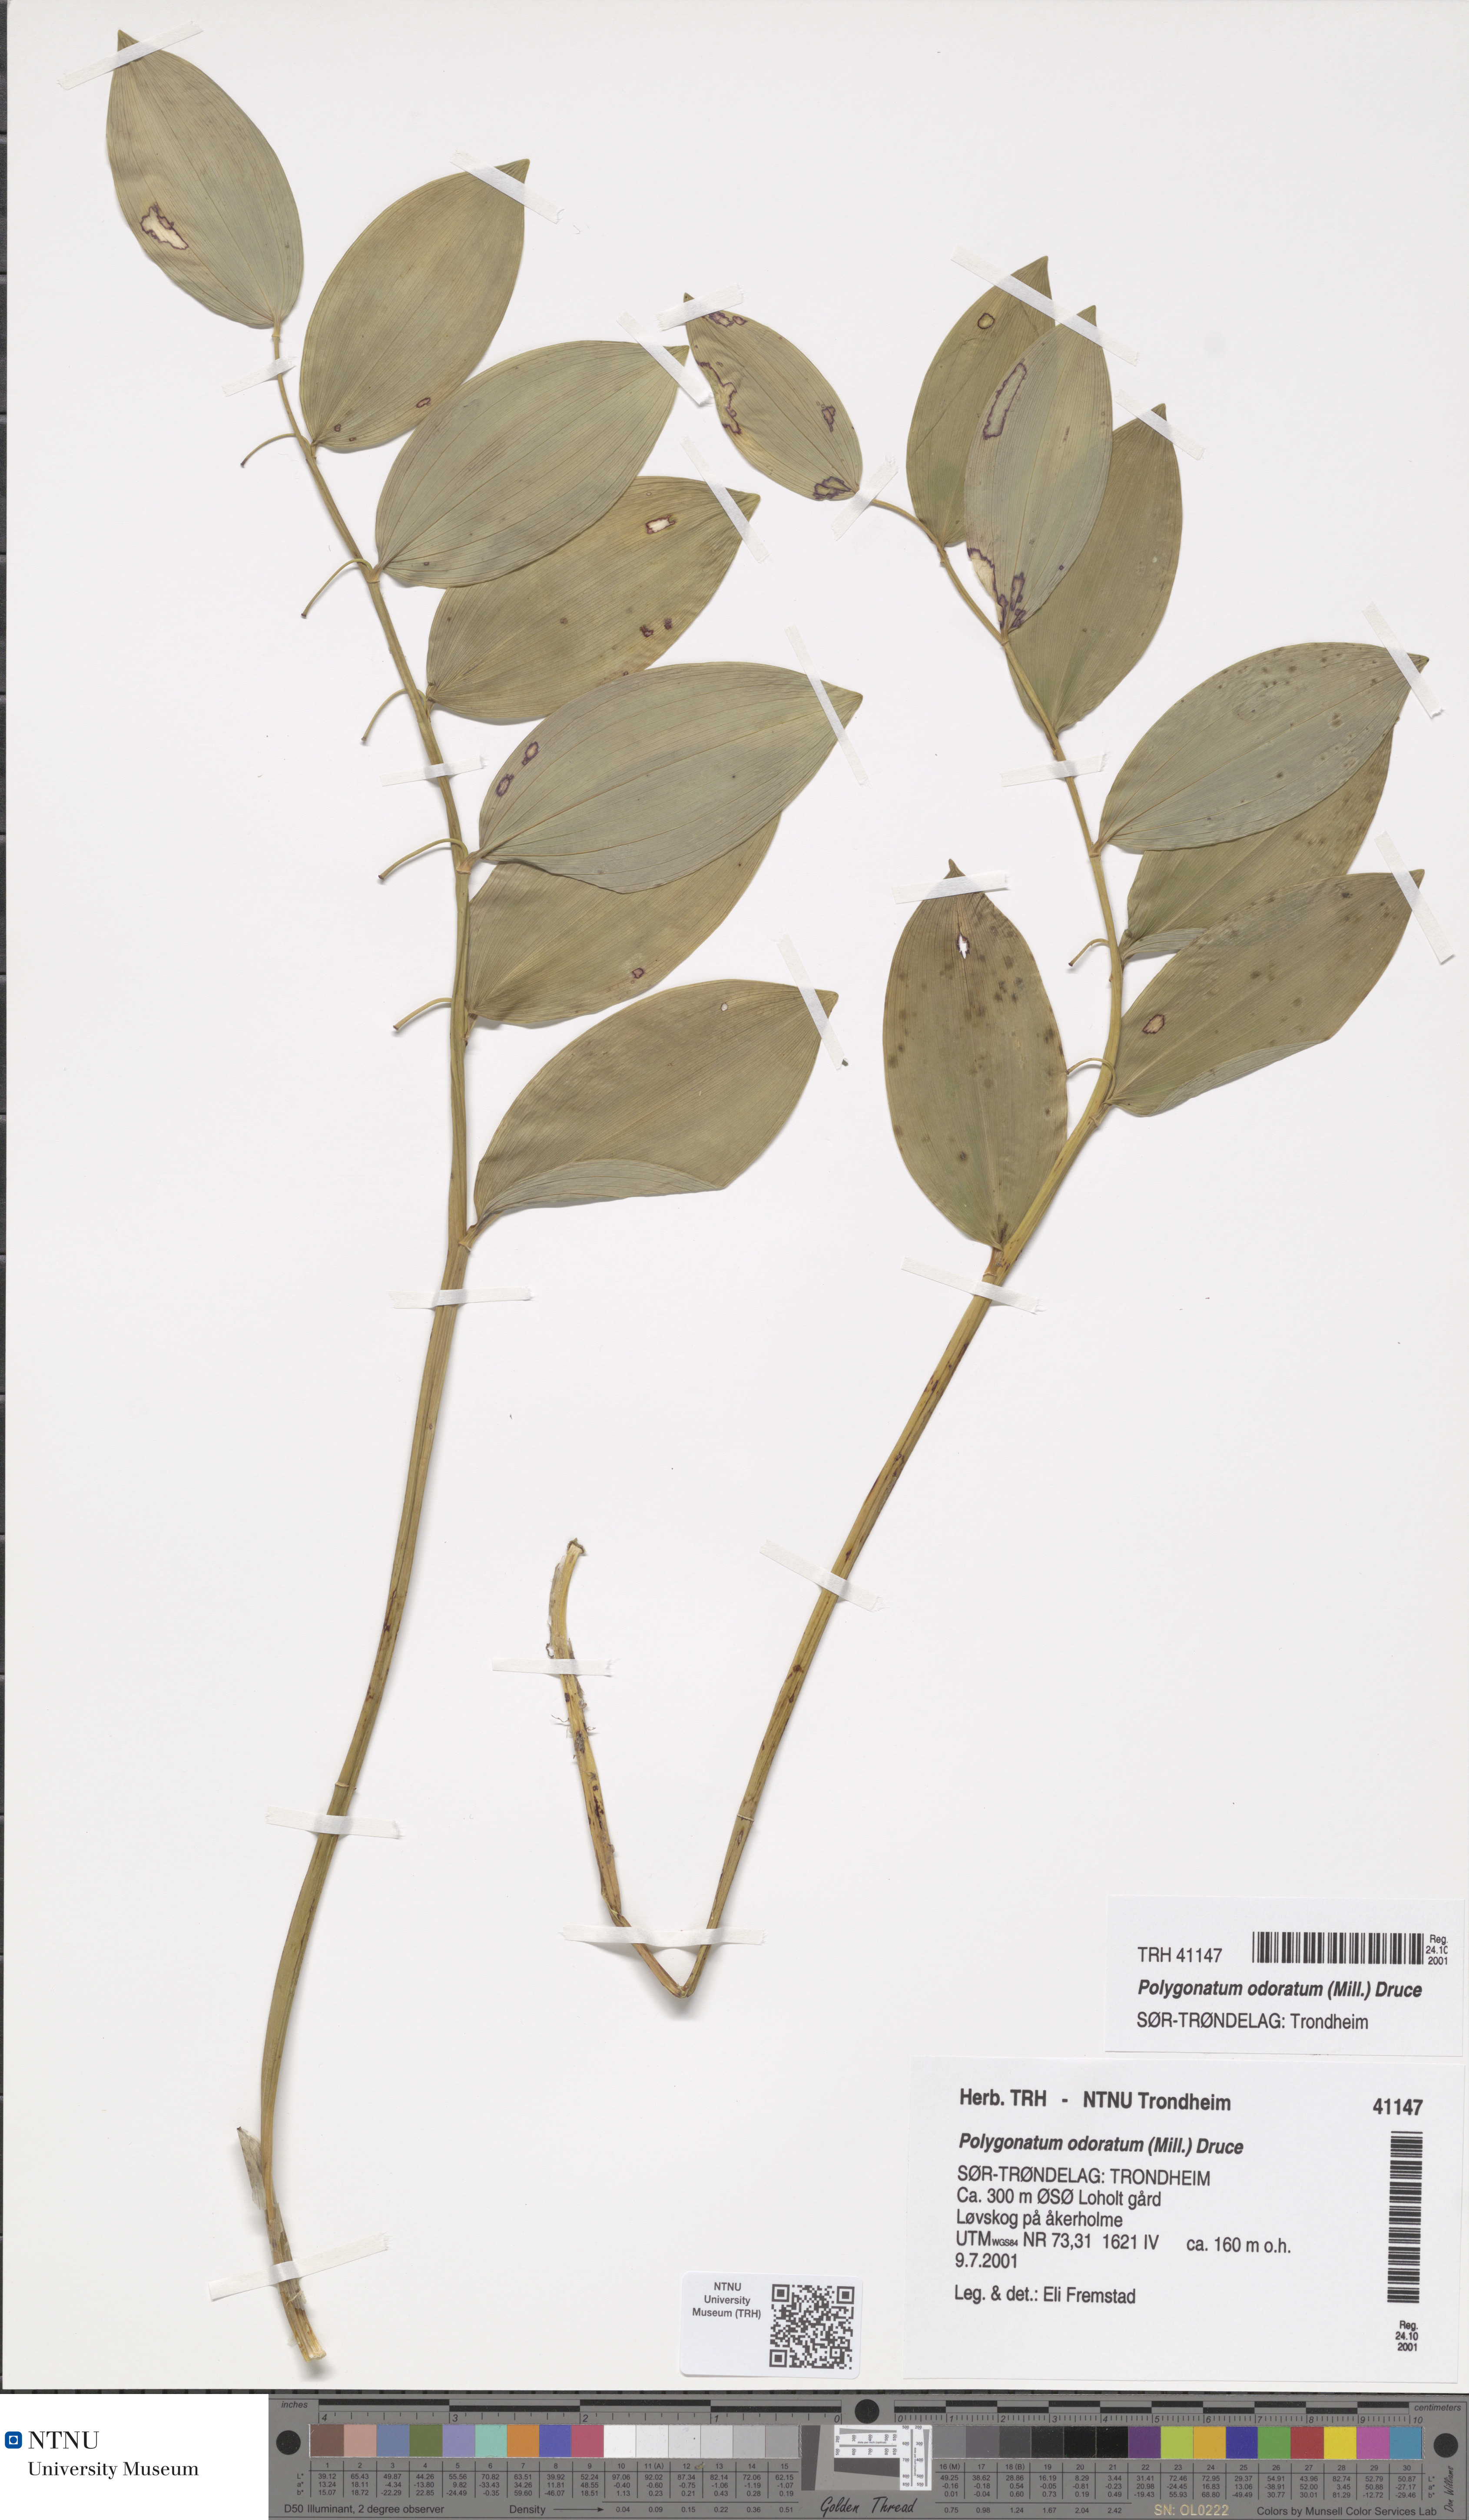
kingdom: Plantae
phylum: Tracheophyta
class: Liliopsida
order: Asparagales
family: Asparagaceae
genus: Polygonatum
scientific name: Polygonatum odoratum
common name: Angular solomon's-seal
